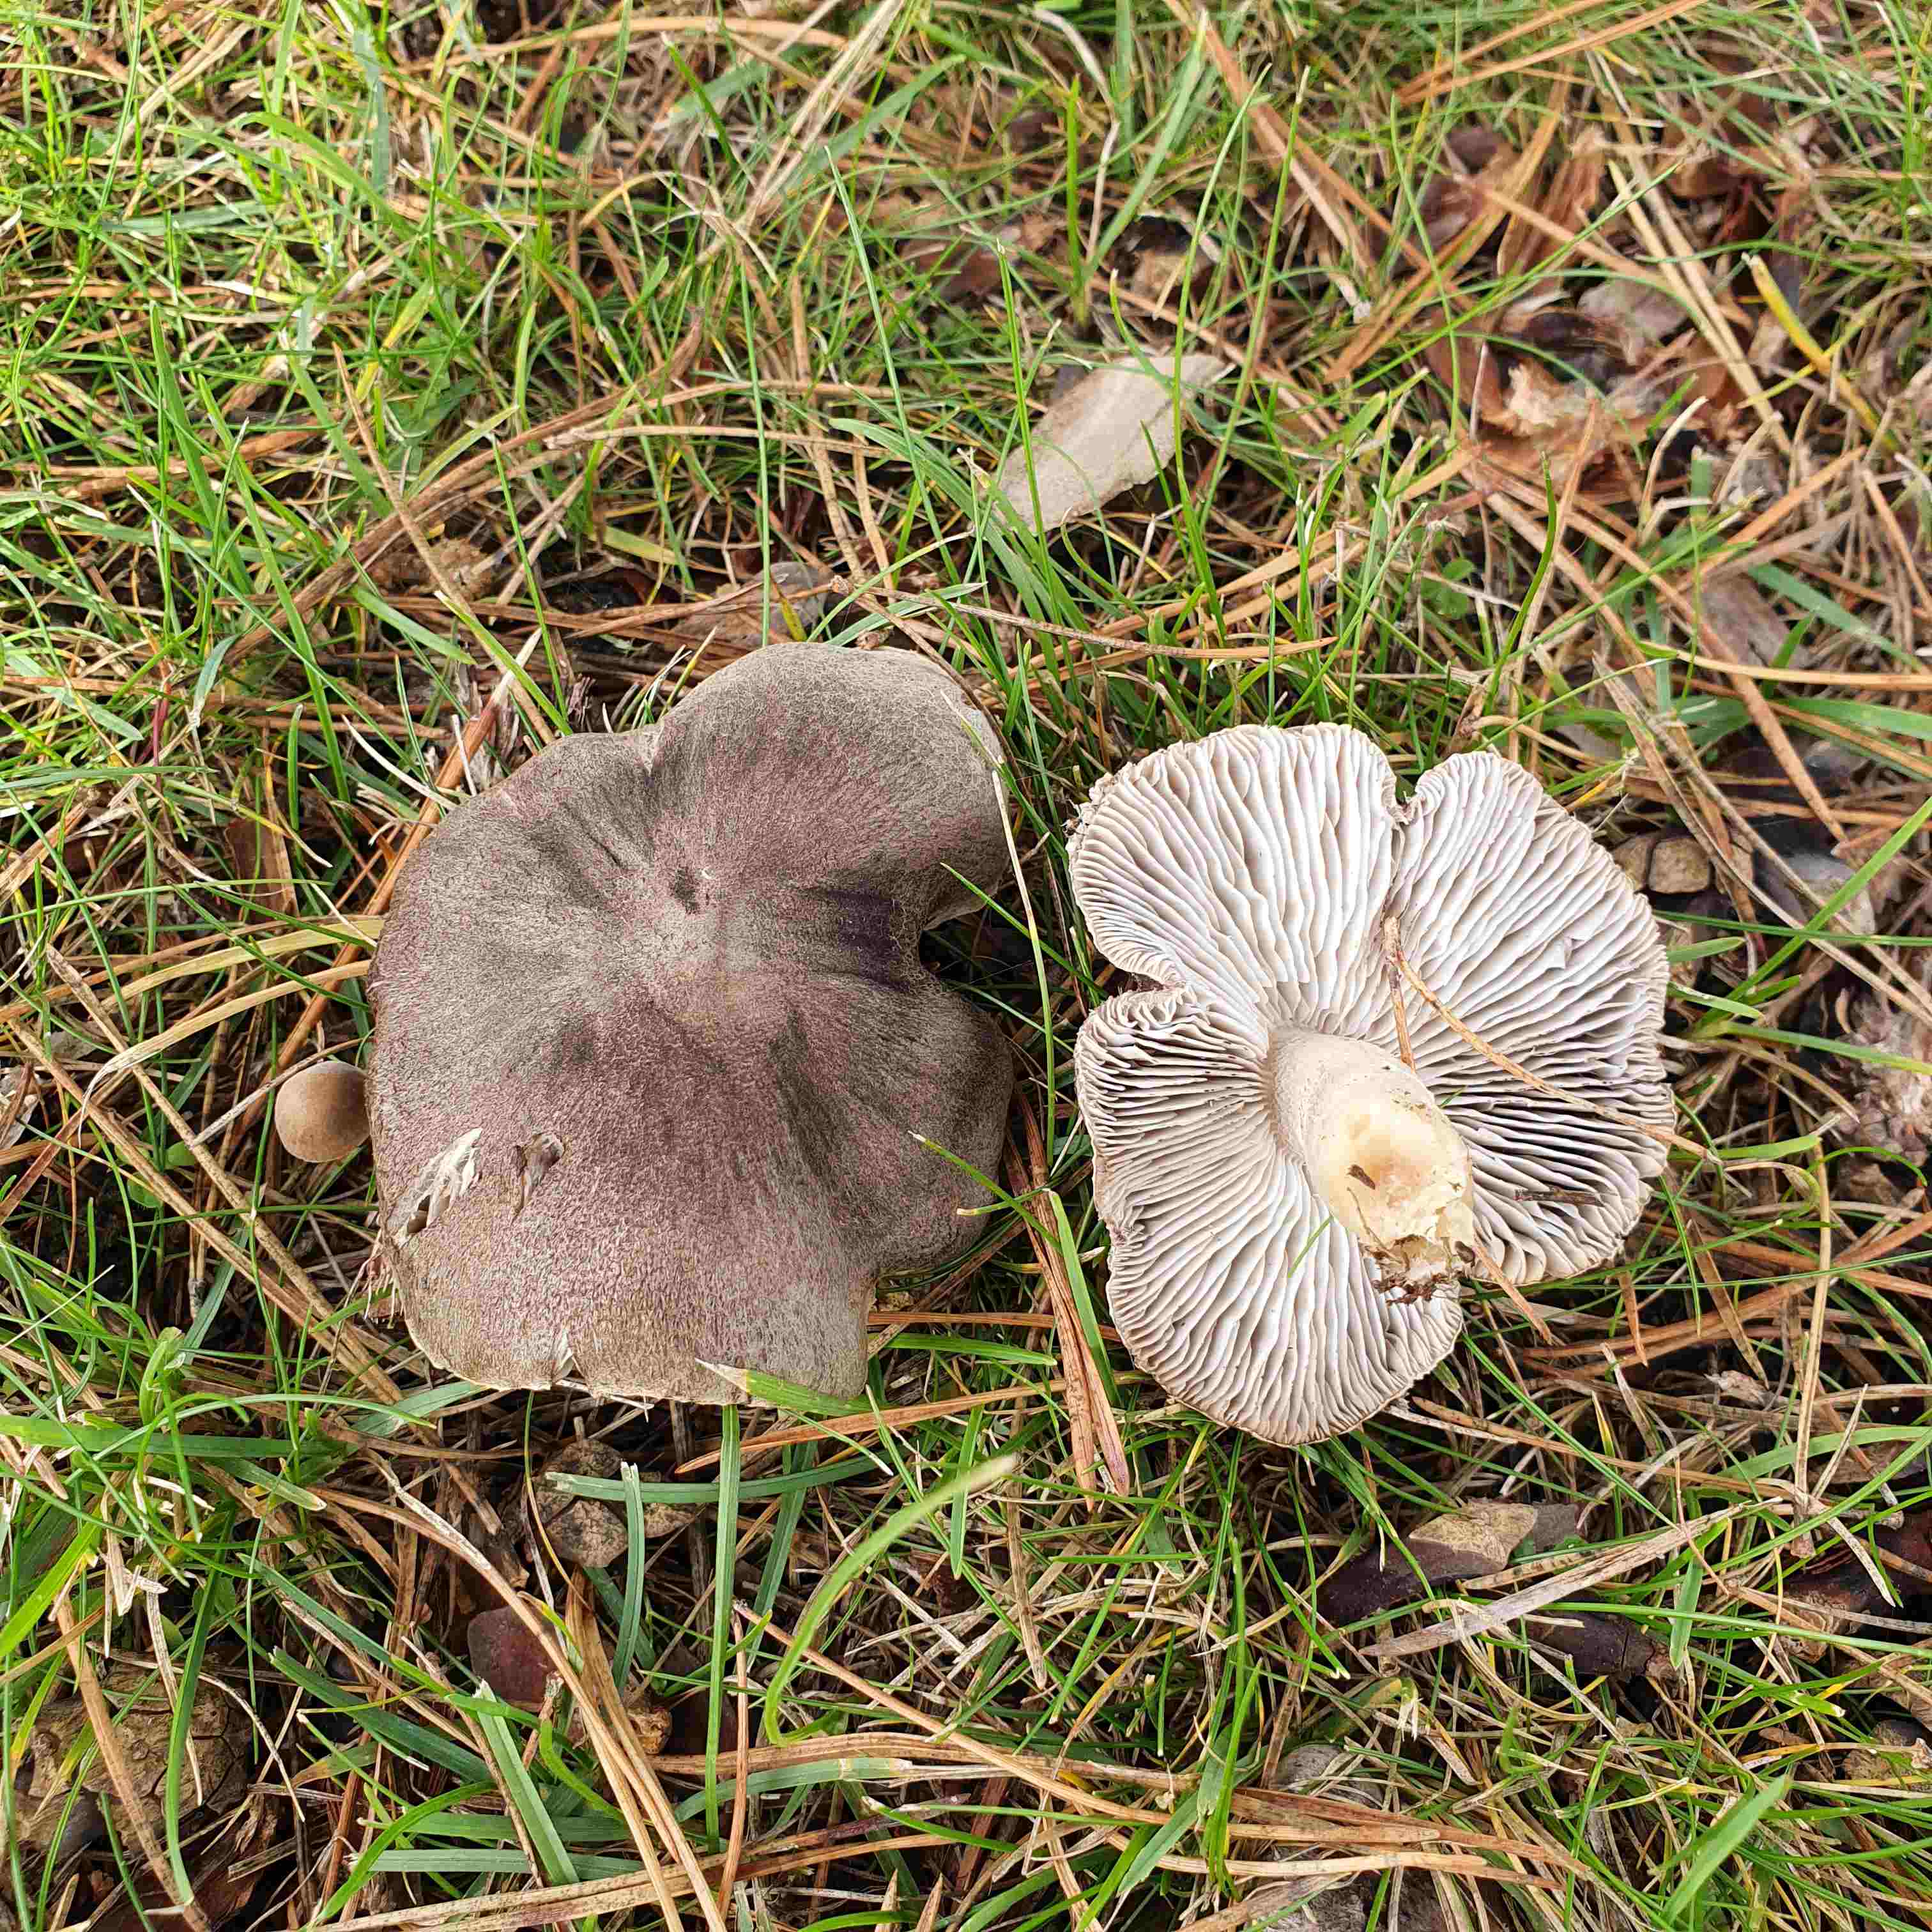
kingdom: Fungi
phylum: Basidiomycota
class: Agaricomycetes
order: Agaricales
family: Tricholomataceae
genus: Tricholoma
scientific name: Tricholoma terreum
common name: jordfarvet ridderhat
